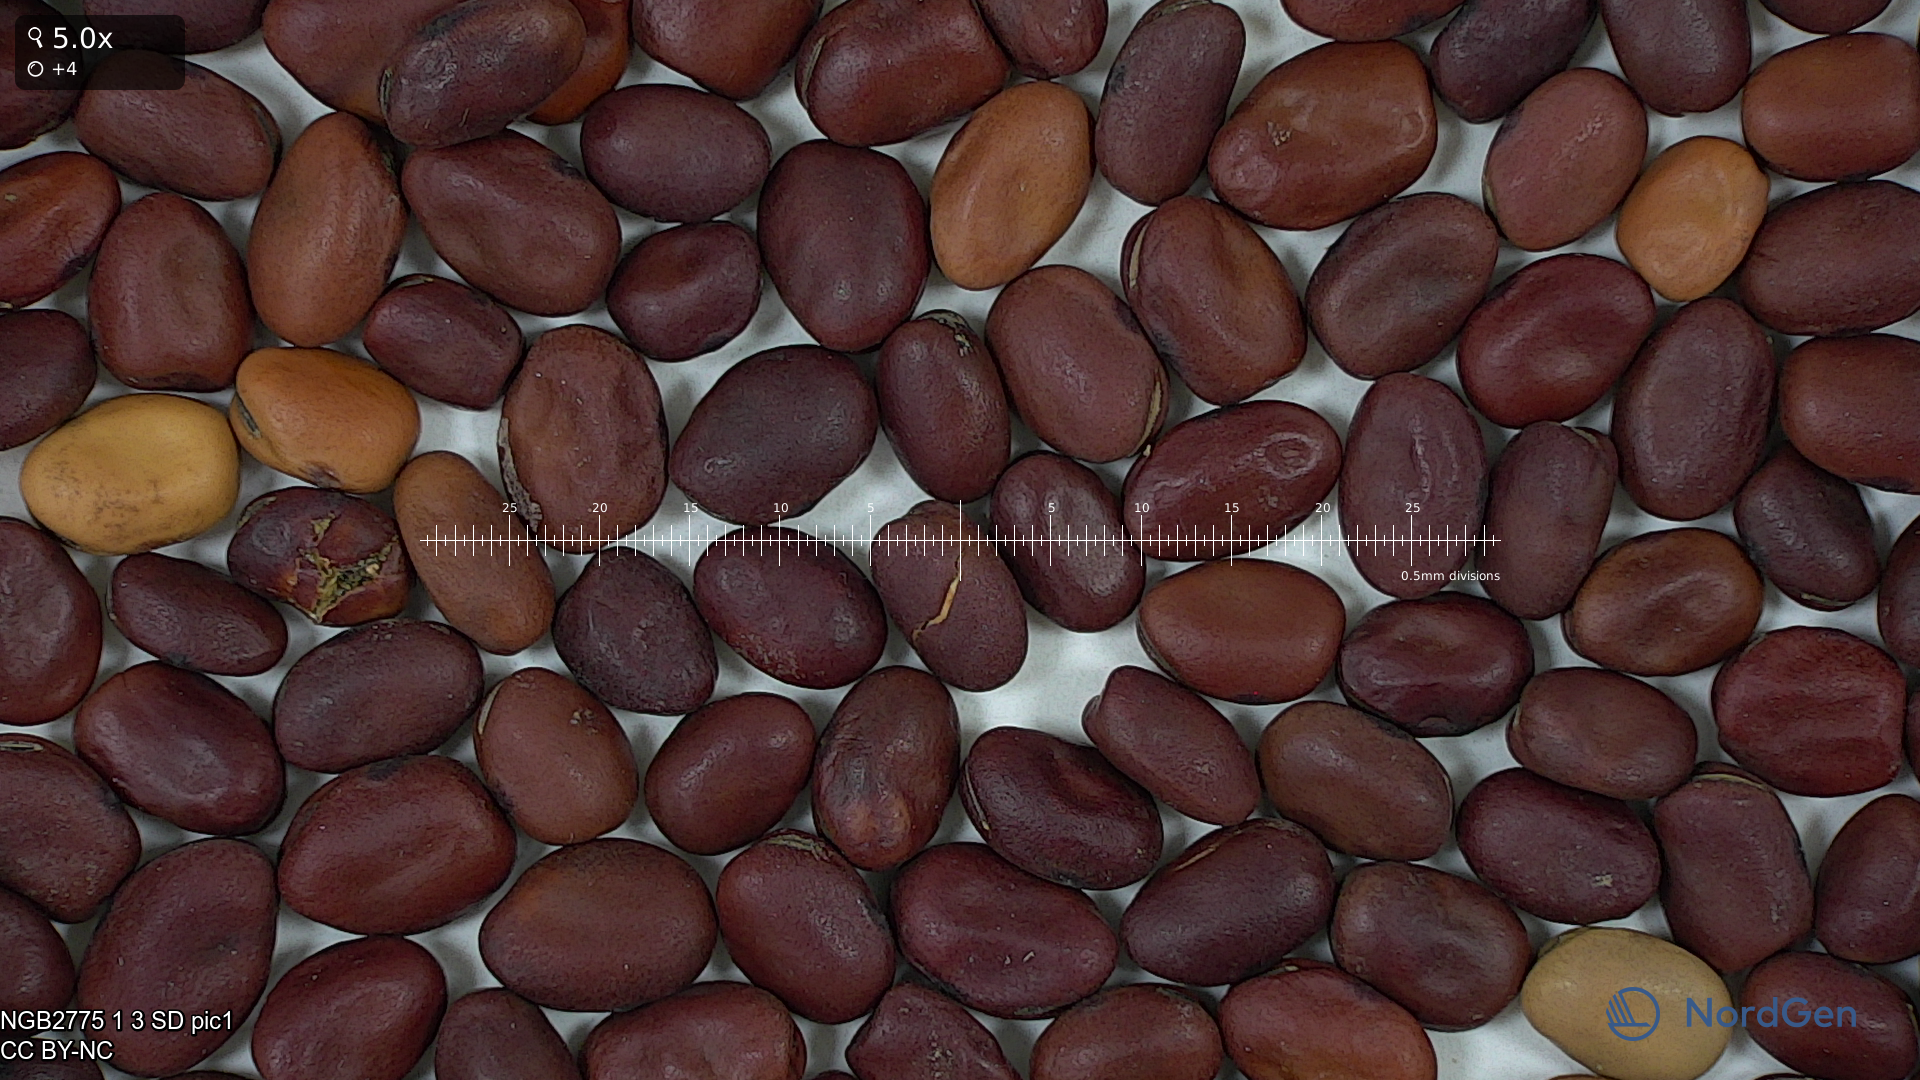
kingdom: Plantae
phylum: Tracheophyta
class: Magnoliopsida
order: Fabales
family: Fabaceae
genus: Vicia
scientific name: Vicia faba
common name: Broad bean
